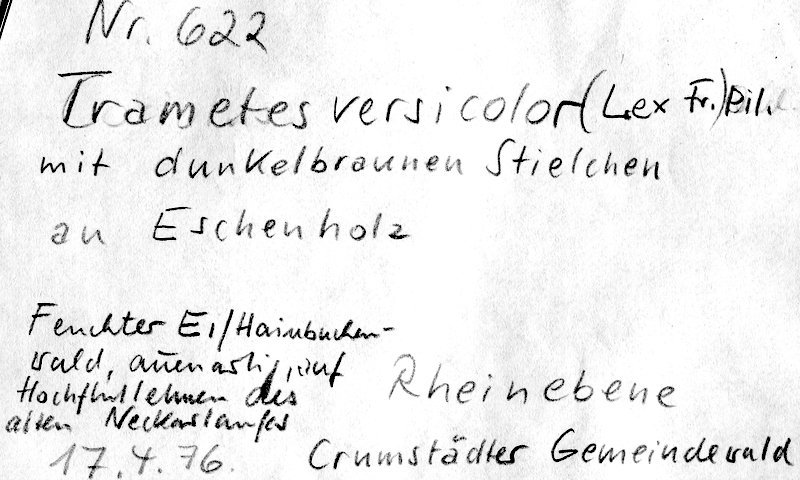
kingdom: Fungi
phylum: Basidiomycota
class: Agaricomycetes
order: Polyporales
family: Polyporaceae
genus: Trametes
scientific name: Trametes versicolor
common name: Turkeytail
